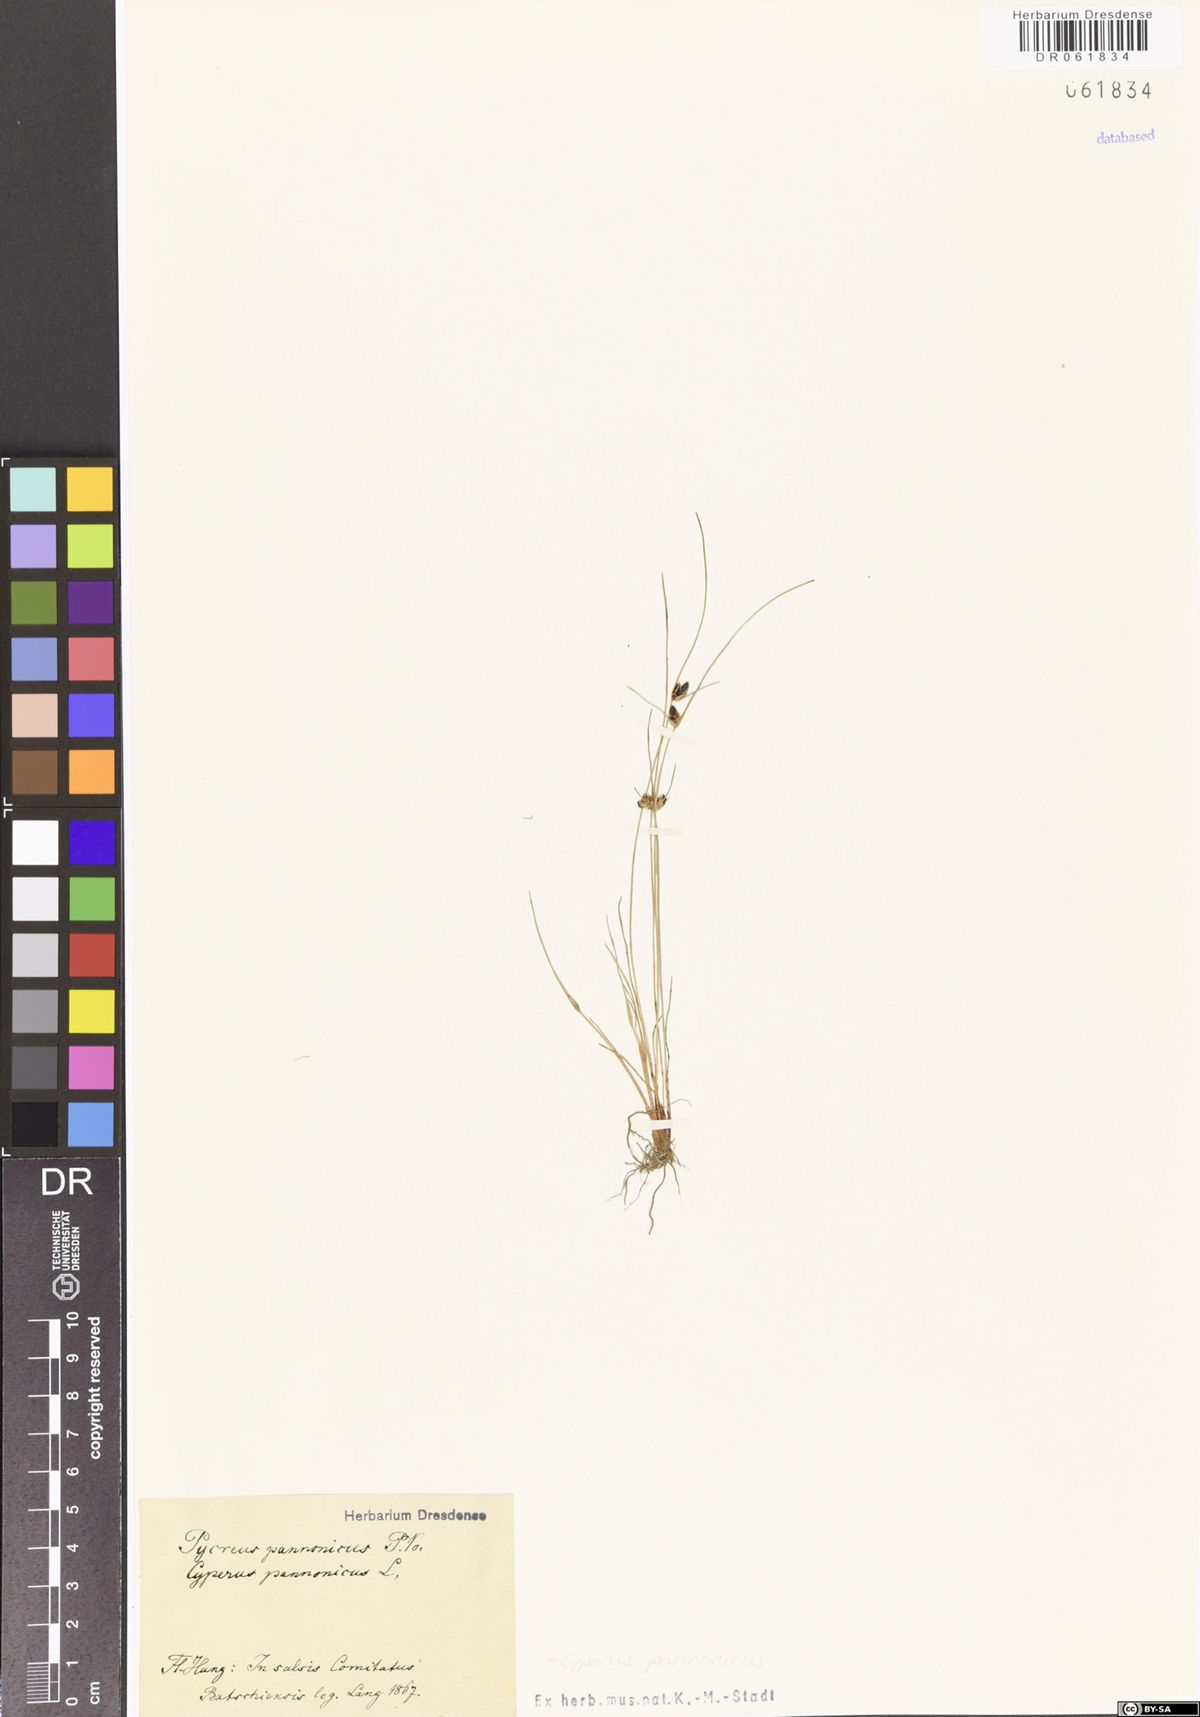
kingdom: Plantae
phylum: Tracheophyta
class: Liliopsida
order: Poales
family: Cyperaceae
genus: Cyperus
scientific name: Cyperus pannonicus
